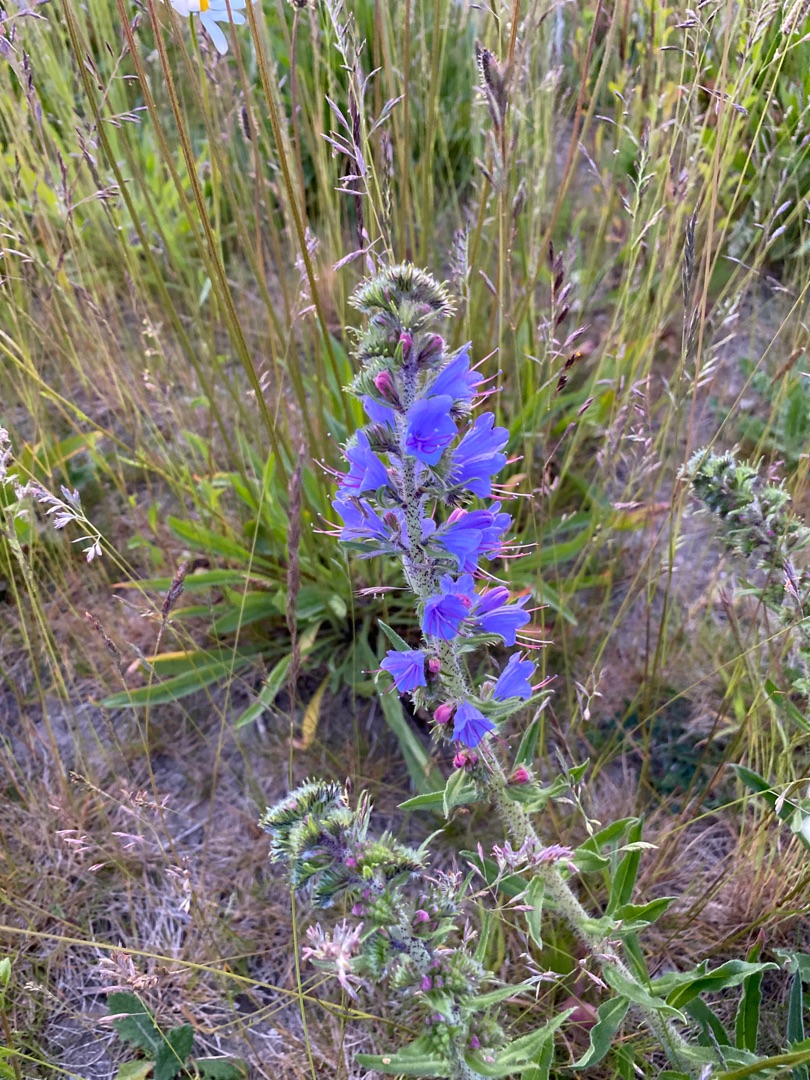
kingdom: Plantae
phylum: Tracheophyta
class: Magnoliopsida
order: Boraginales
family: Boraginaceae
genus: Echium
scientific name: Echium vulgare
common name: Slangehoved
